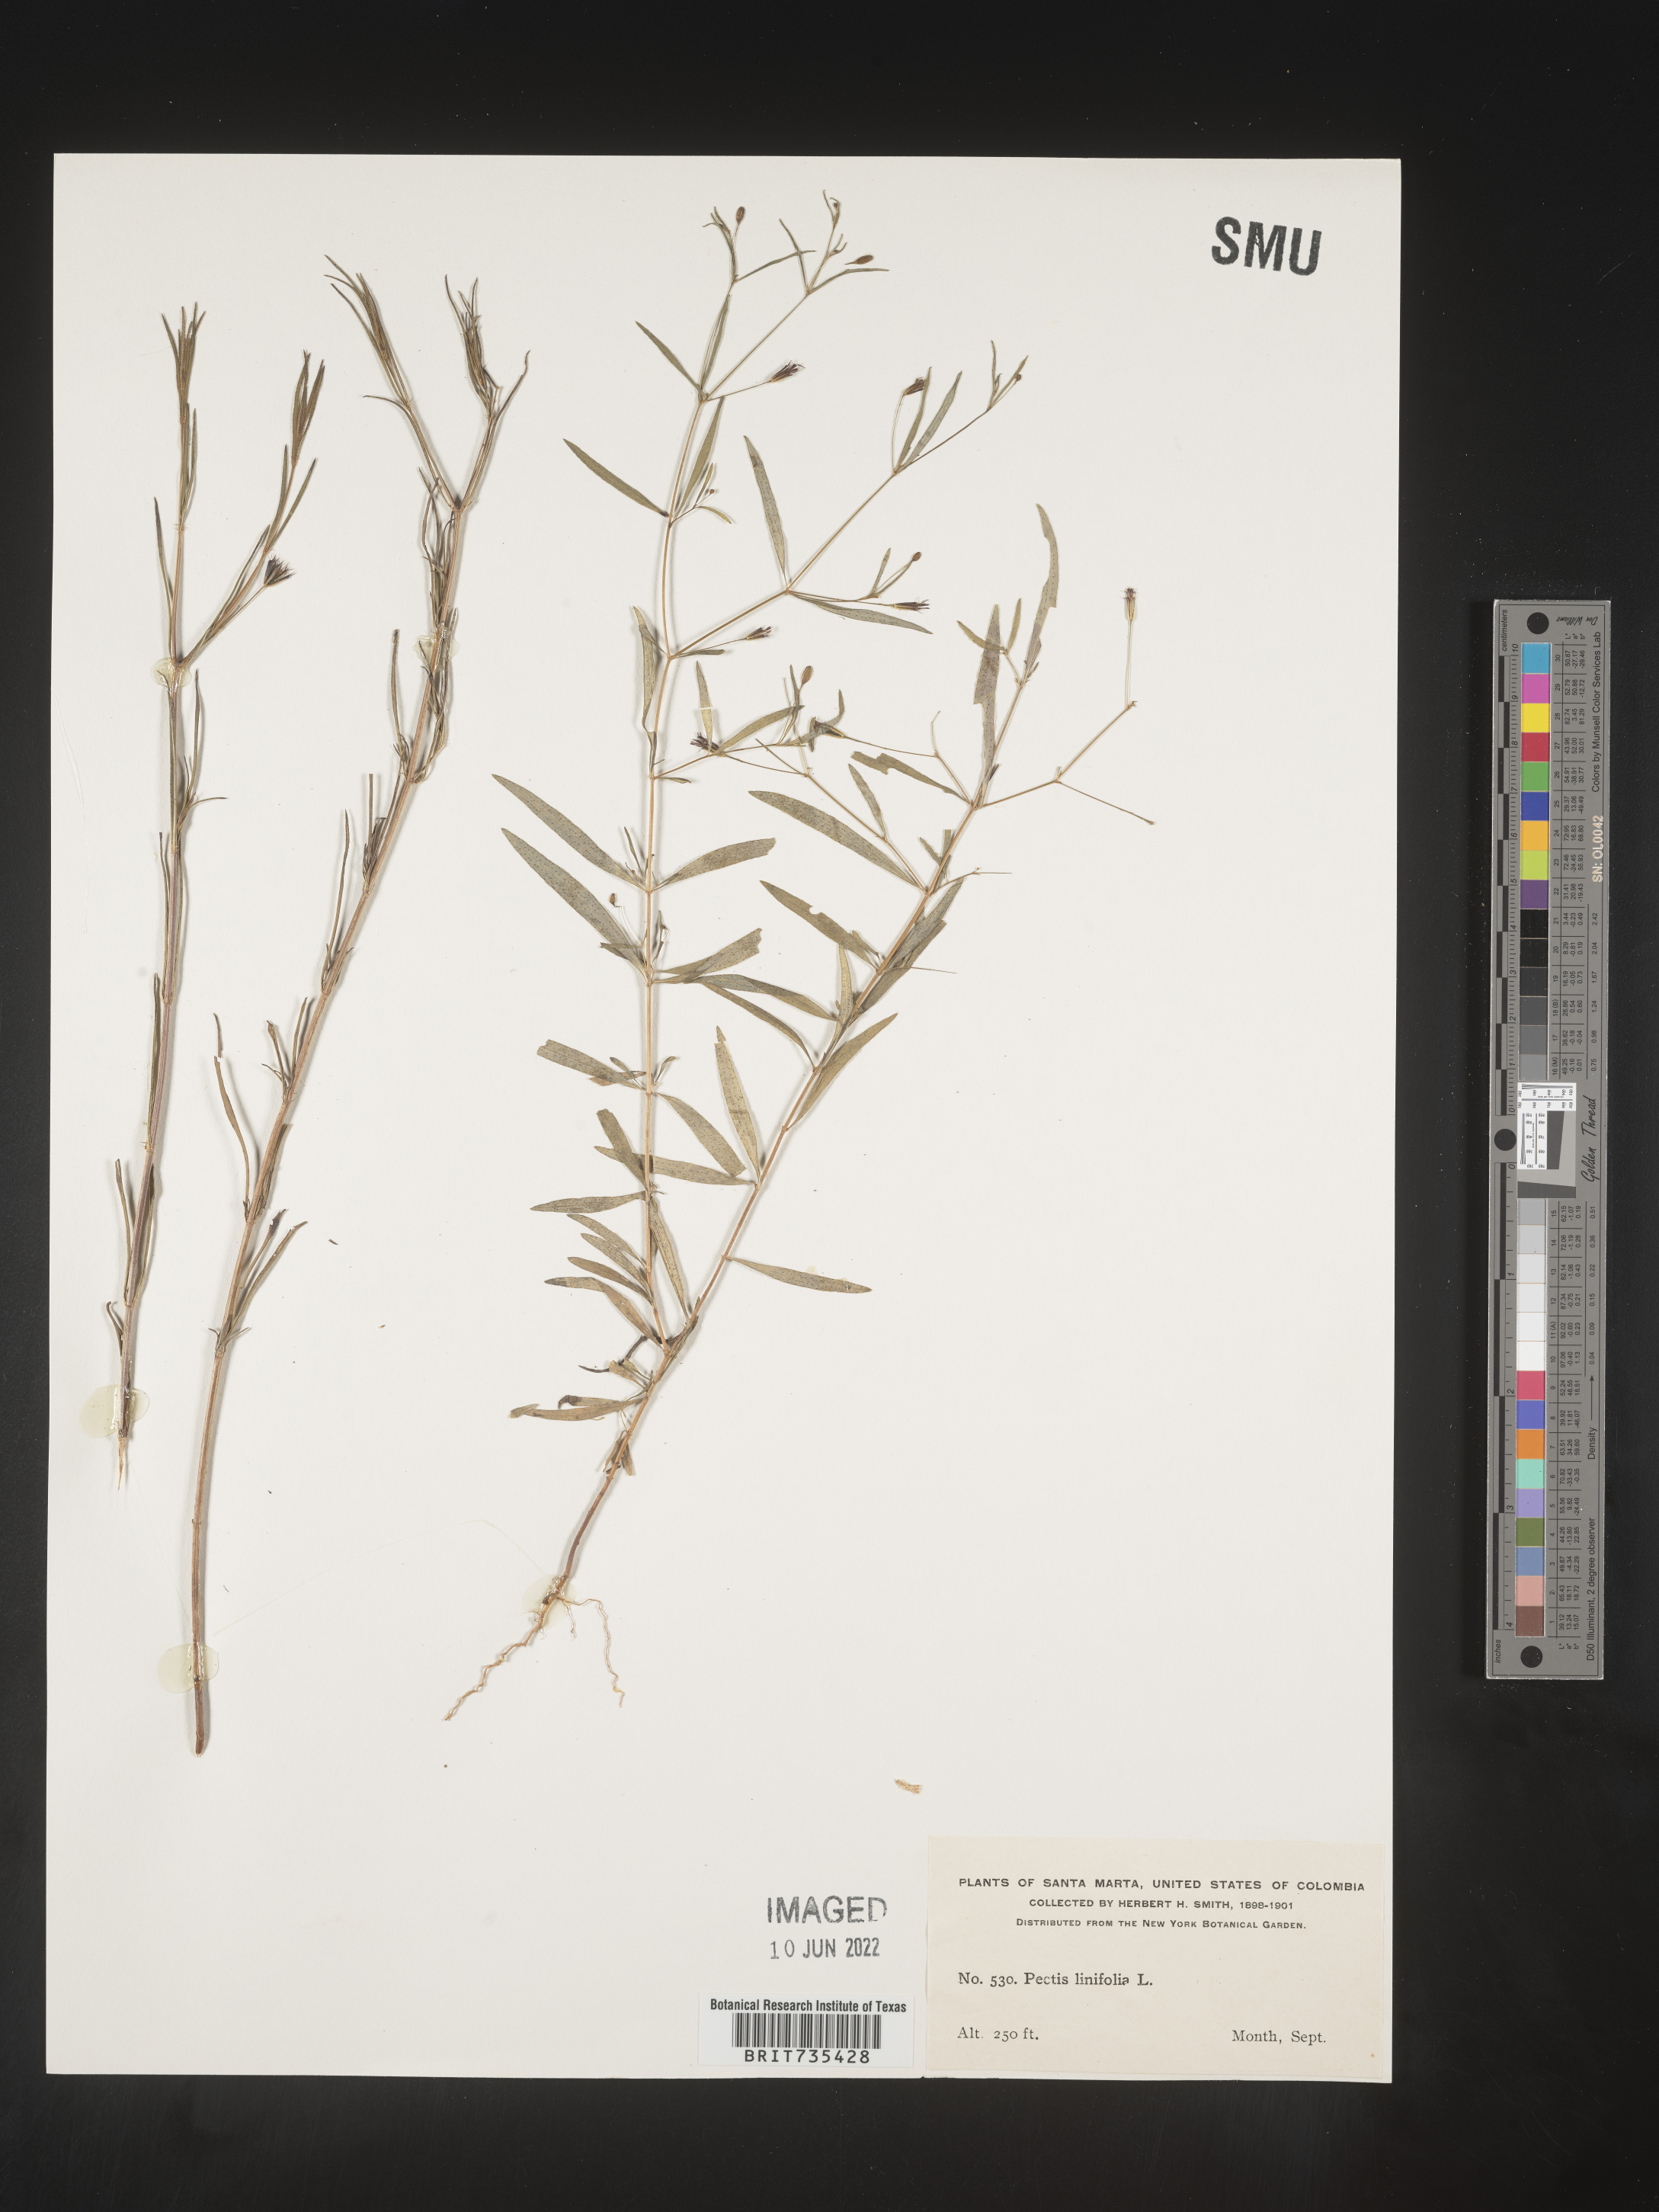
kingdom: Plantae
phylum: Tracheophyta
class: Magnoliopsida
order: Asterales
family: Asteraceae
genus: Pectis
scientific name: Pectis
